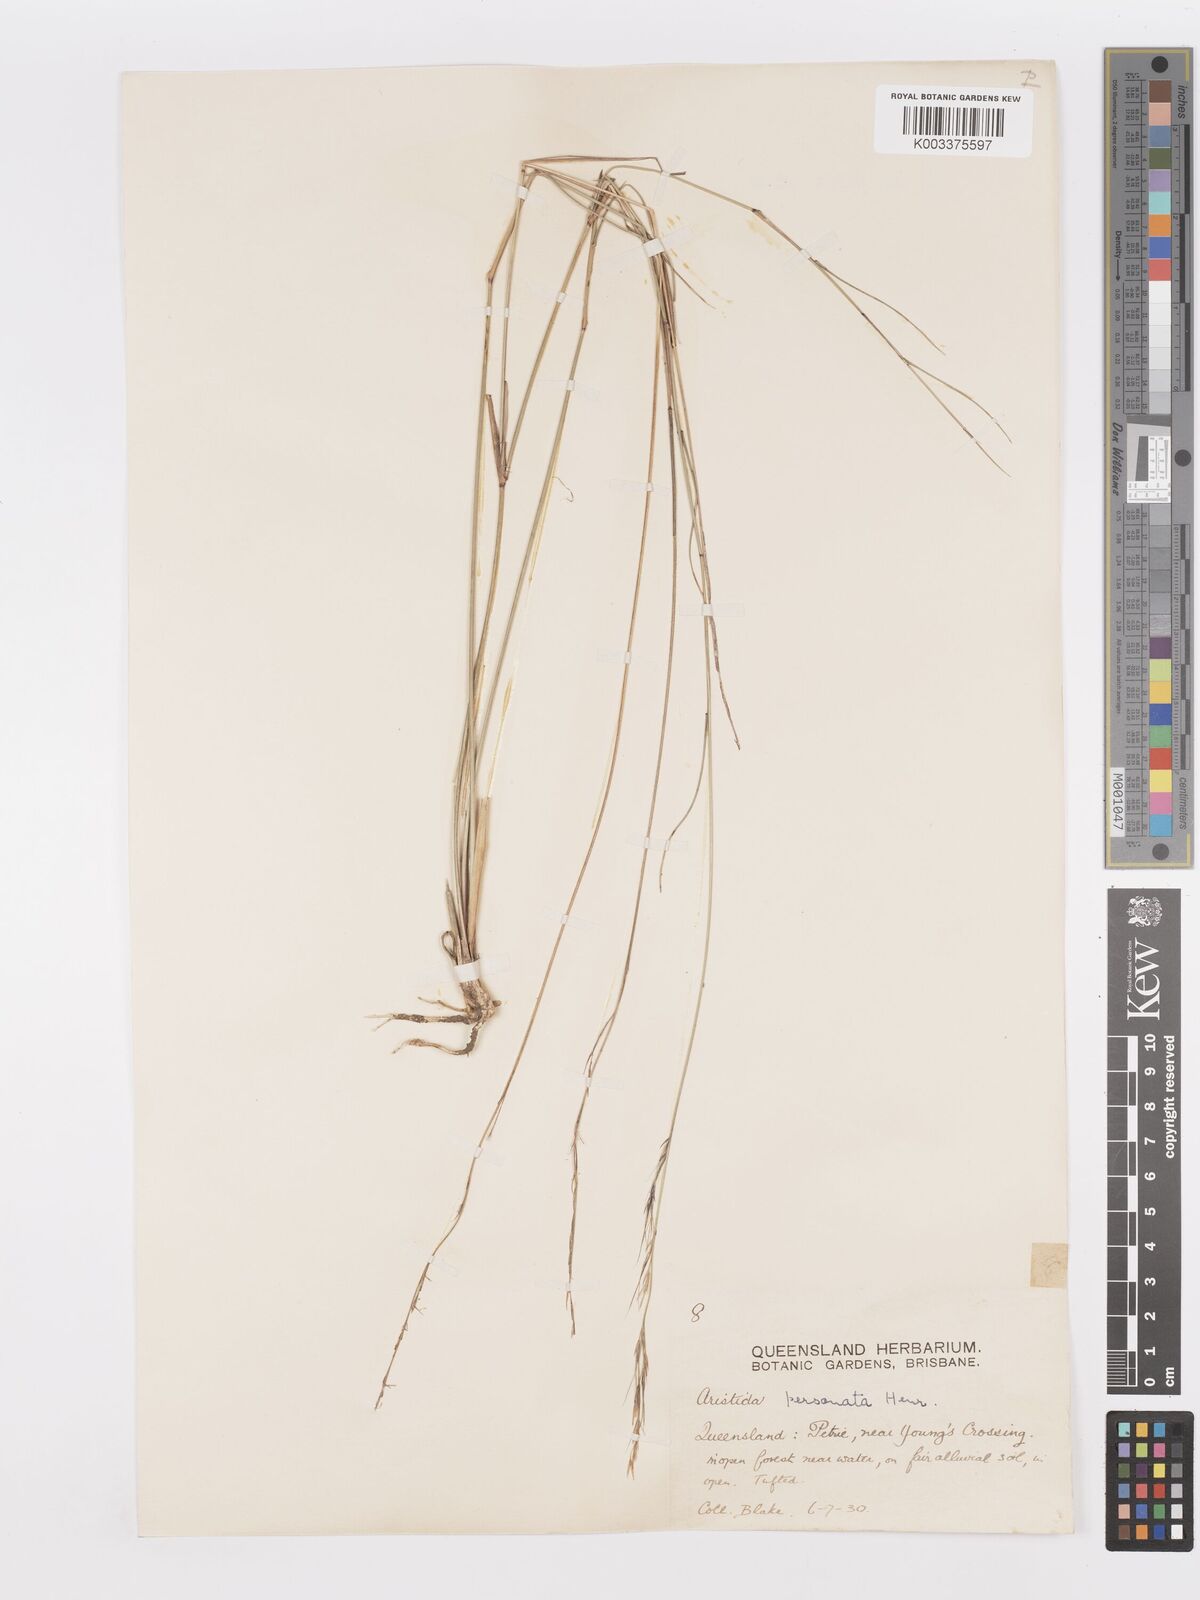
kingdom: Plantae
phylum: Tracheophyta
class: Liliopsida
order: Poales
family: Poaceae
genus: Aristida
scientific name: Aristida personata
